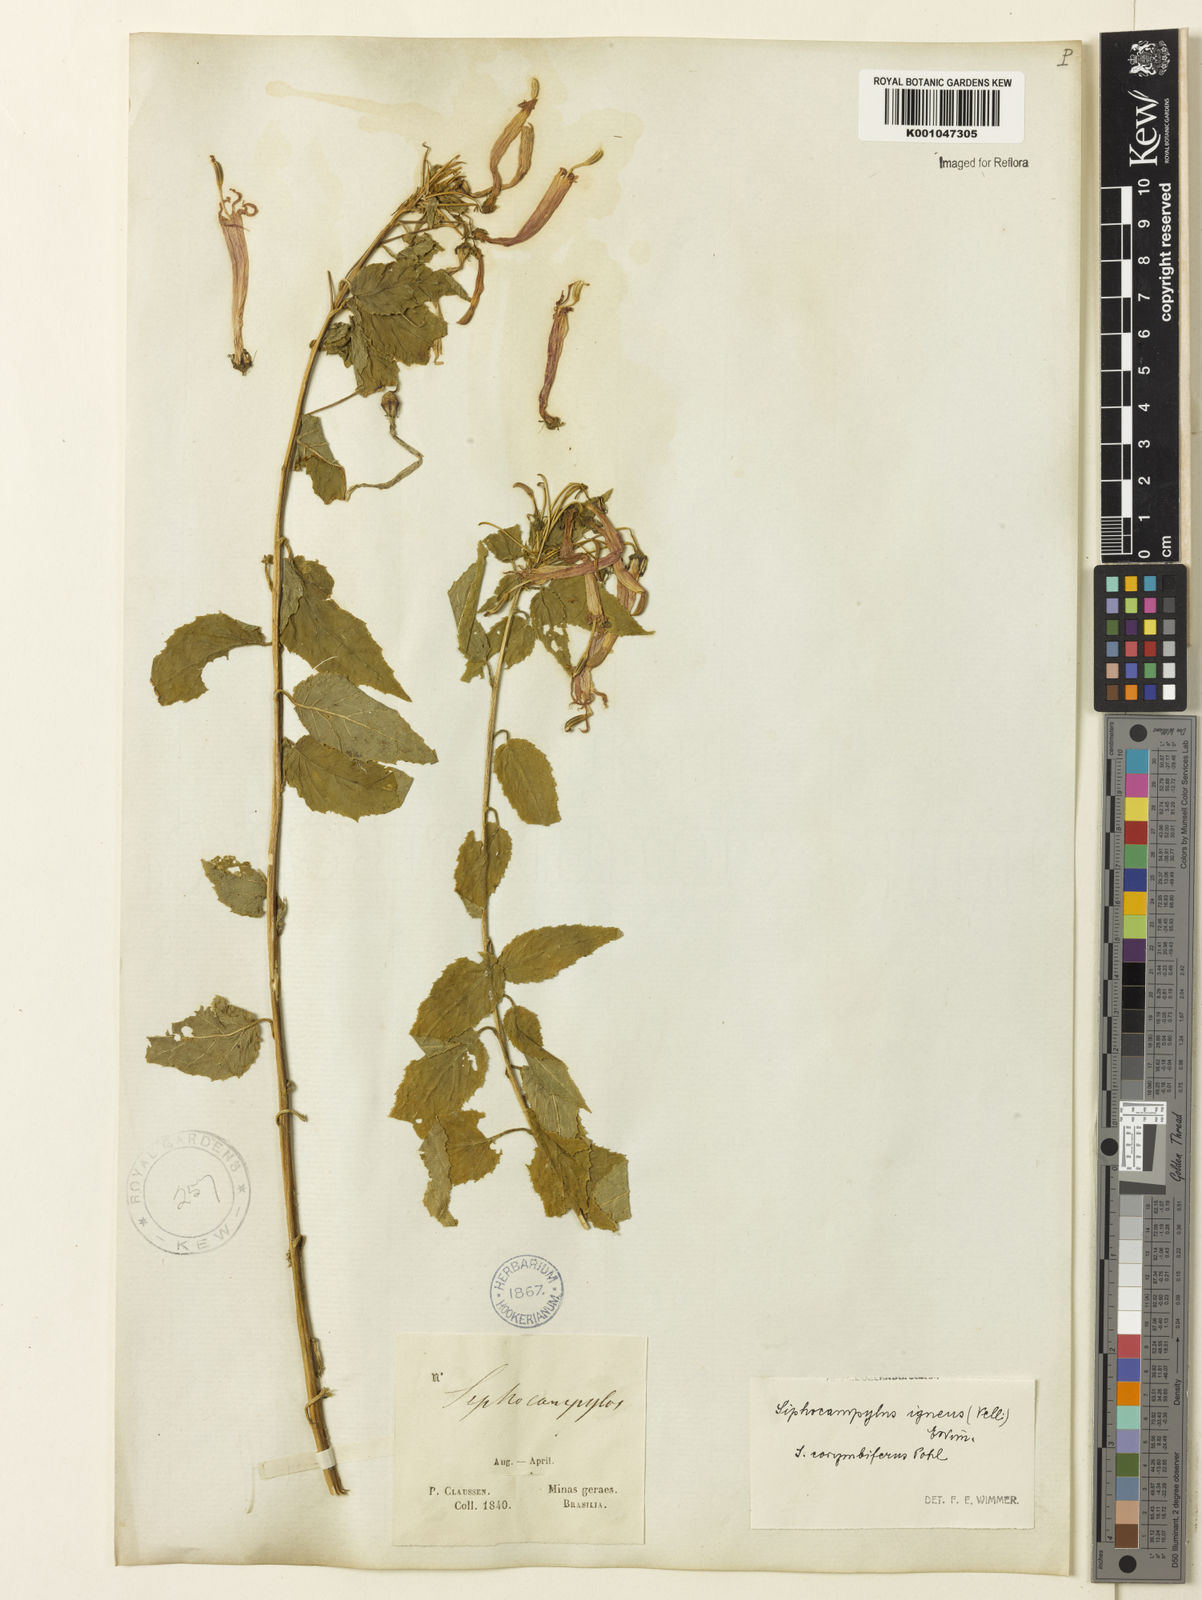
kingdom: Plantae
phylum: Tracheophyta
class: Magnoliopsida
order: Asterales
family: Campanulaceae
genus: Siphocampylus
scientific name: Siphocampylus corymbifer
